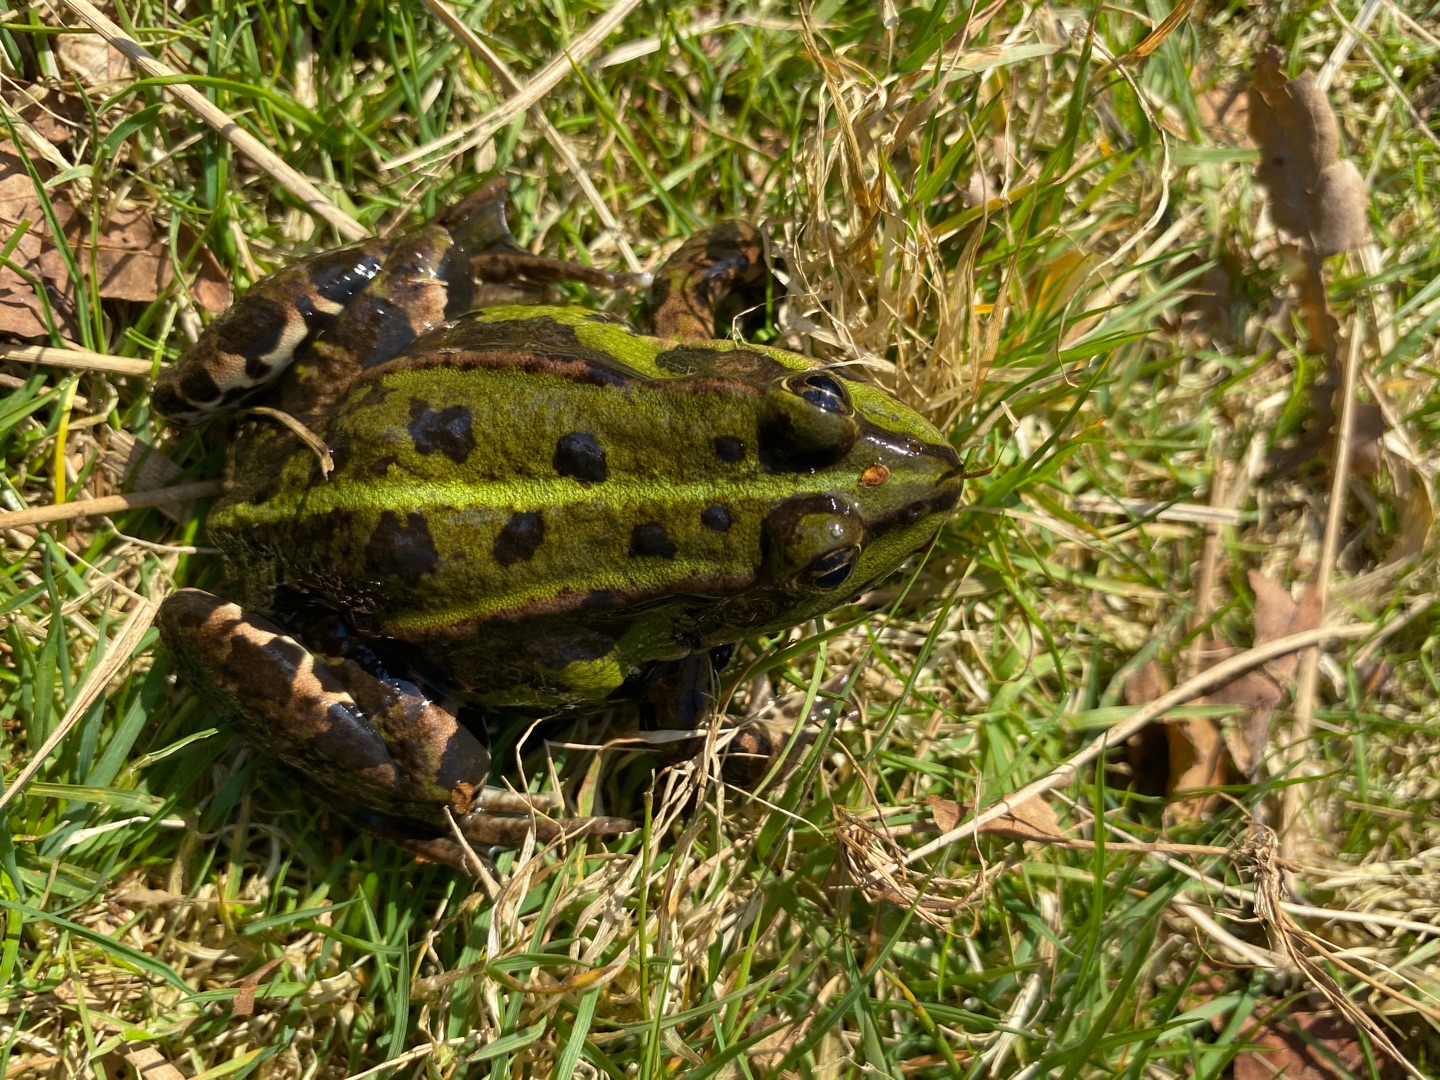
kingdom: Animalia
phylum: Chordata
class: Amphibia
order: Anura
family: Ranidae
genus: Pelophylax
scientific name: Pelophylax lessonae
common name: Grøn frø
